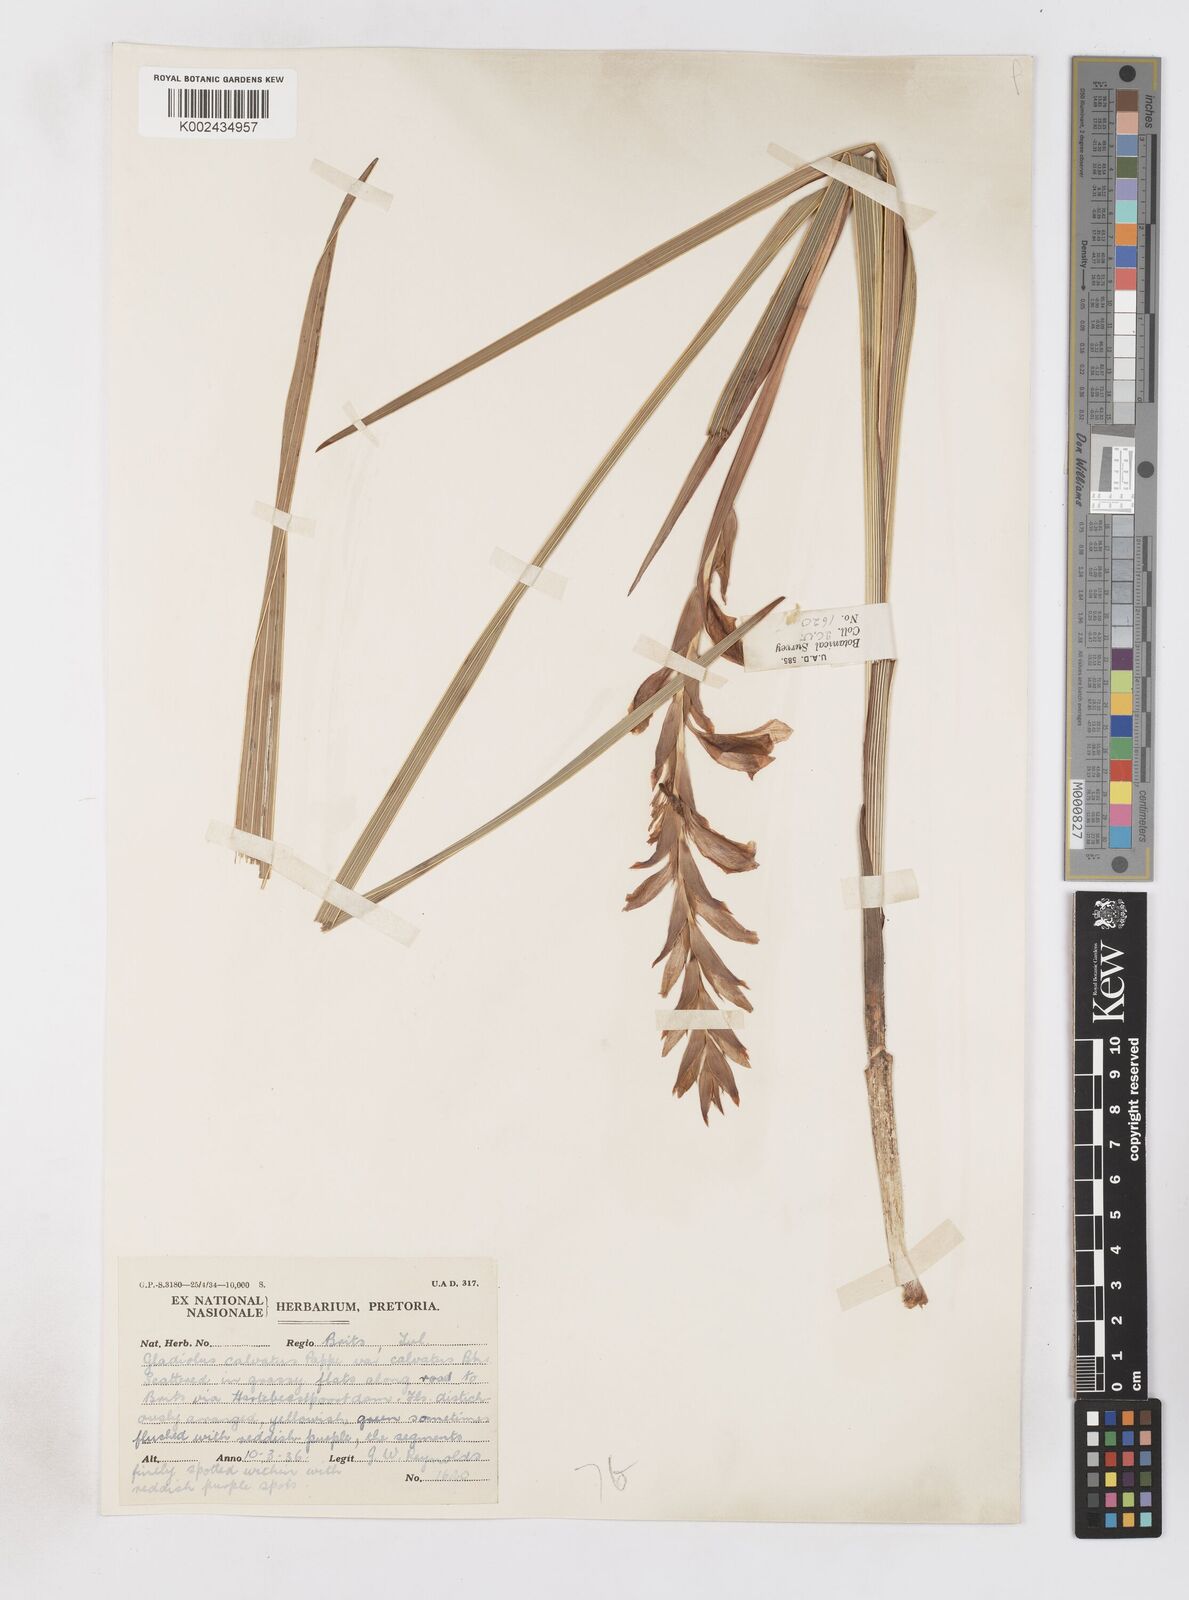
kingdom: Plantae
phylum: Tracheophyta
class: Liliopsida
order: Asparagales
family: Iridaceae
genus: Gladiolus
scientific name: Gladiolus sericeovillosus
